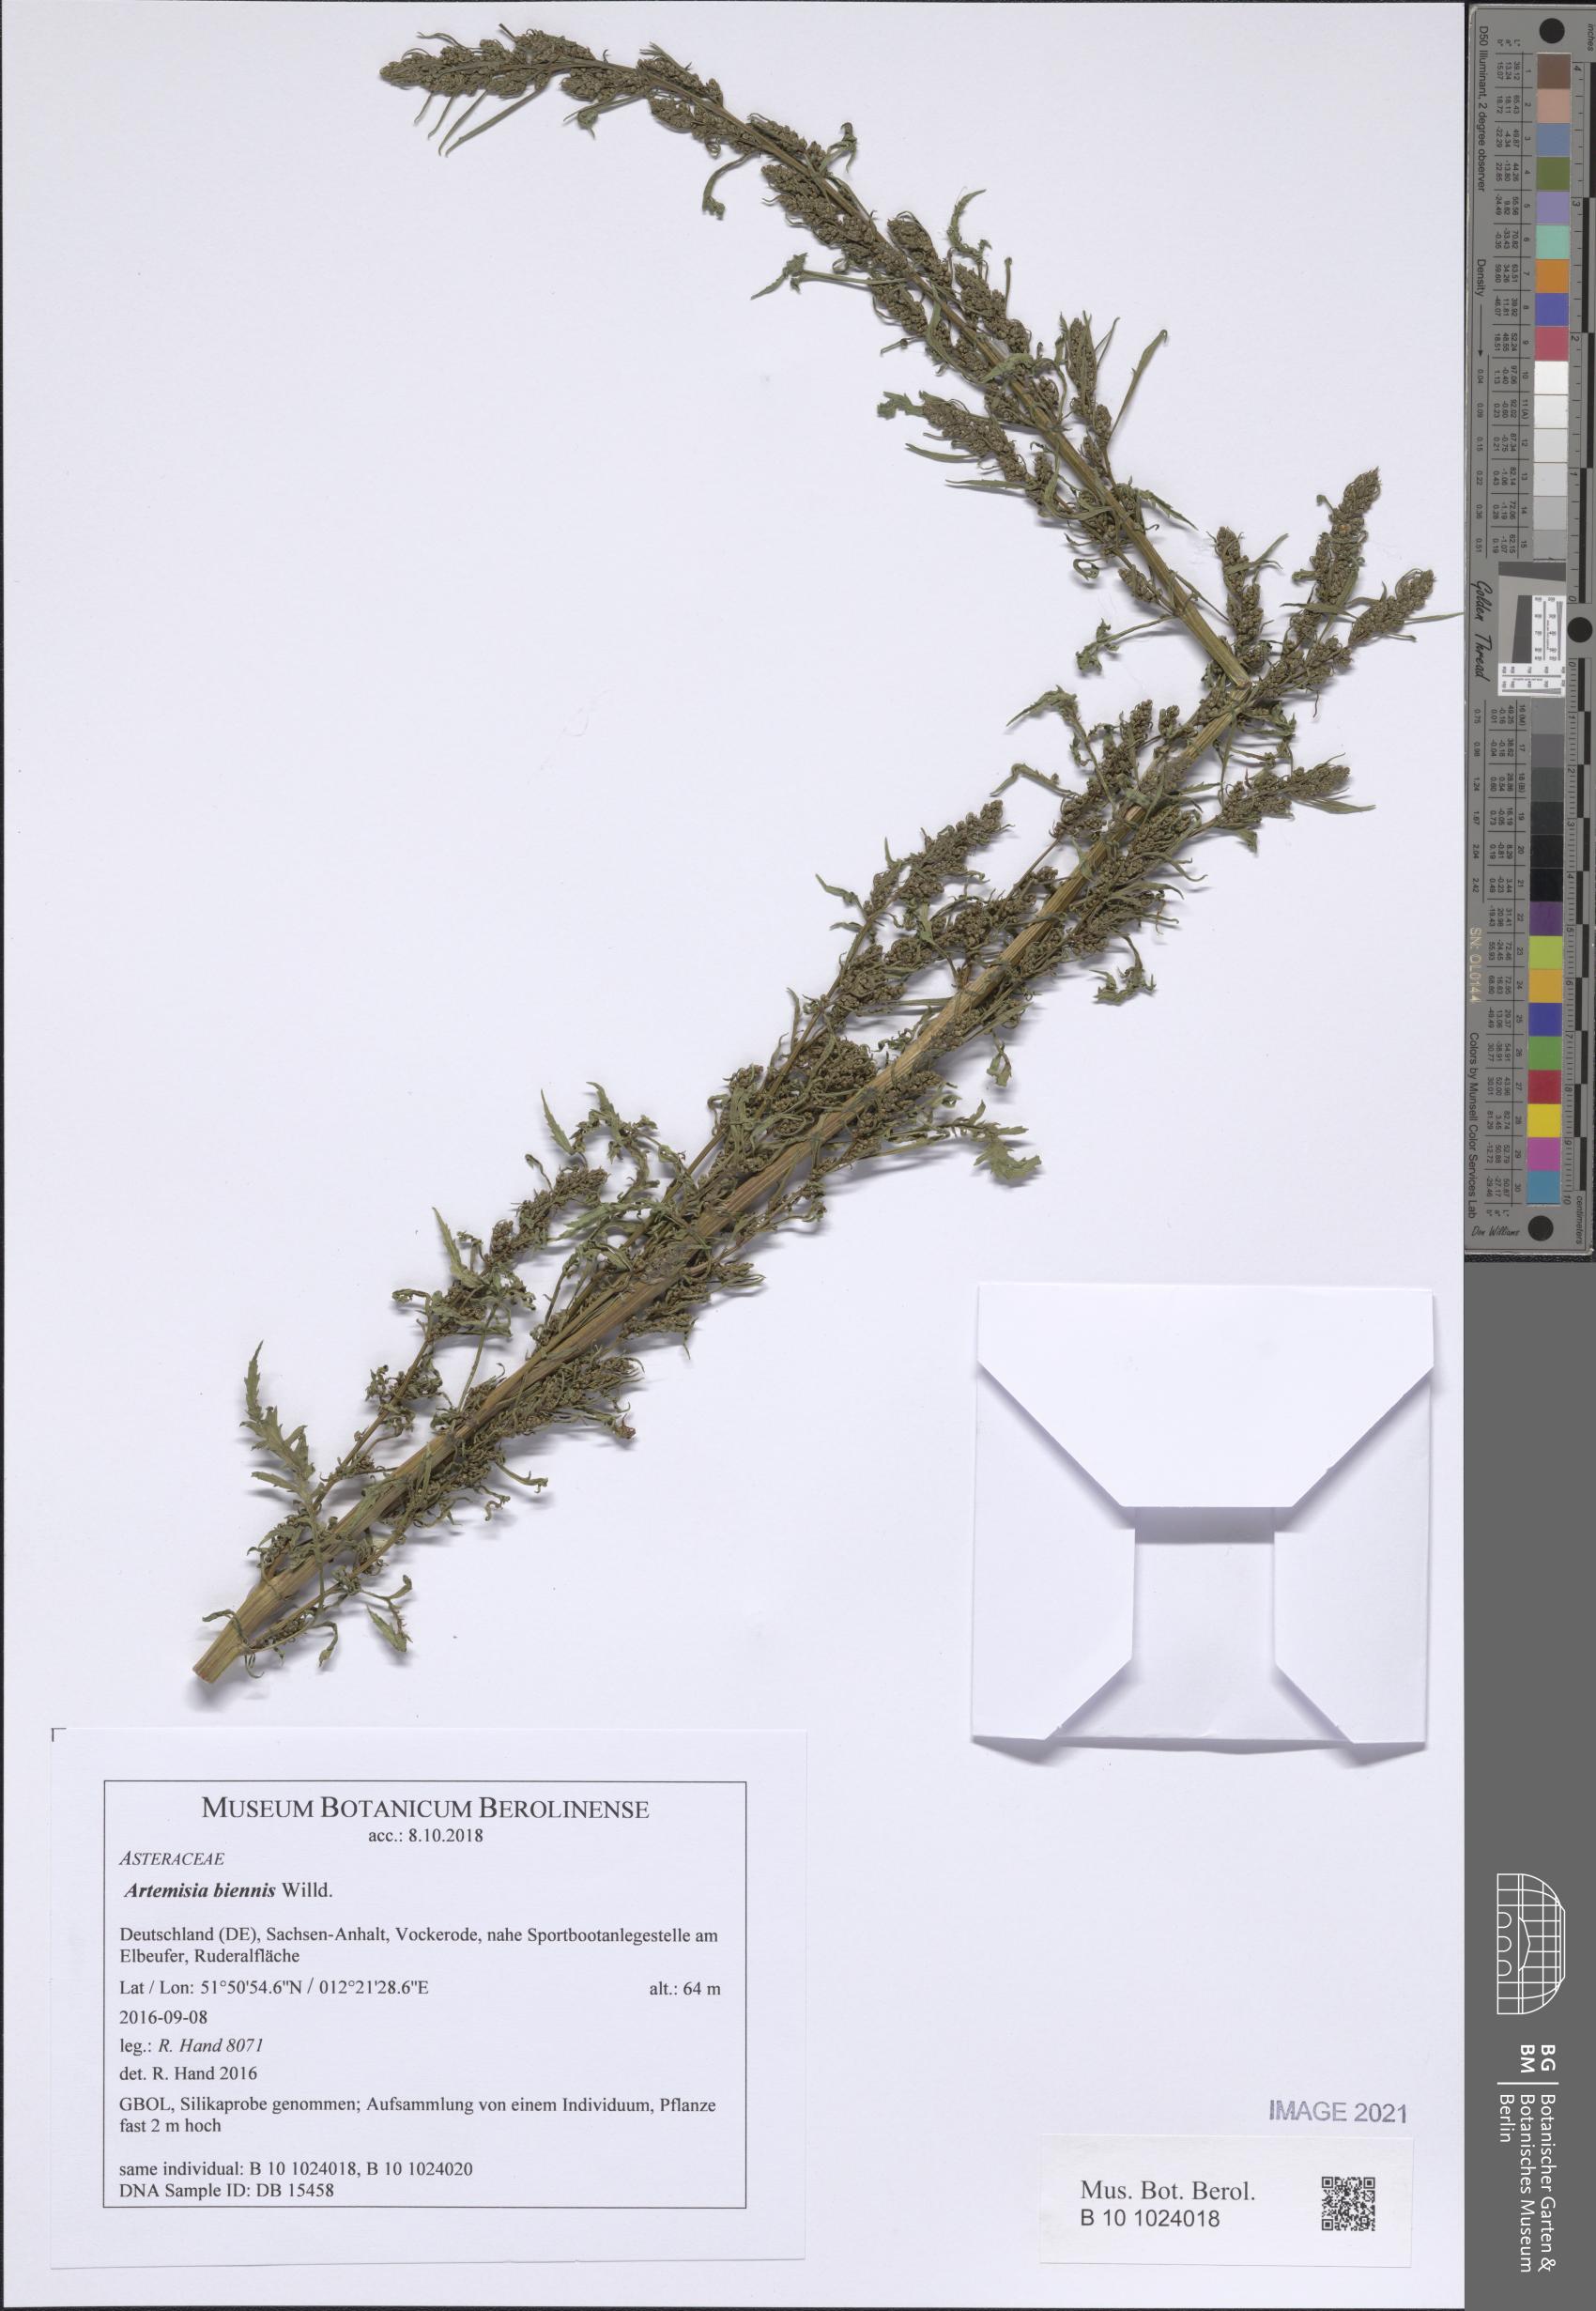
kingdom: Plantae
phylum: Tracheophyta
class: Magnoliopsida
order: Asterales
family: Asteraceae
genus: Artemisia
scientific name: Artemisia biennis
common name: Biennial wormwood
